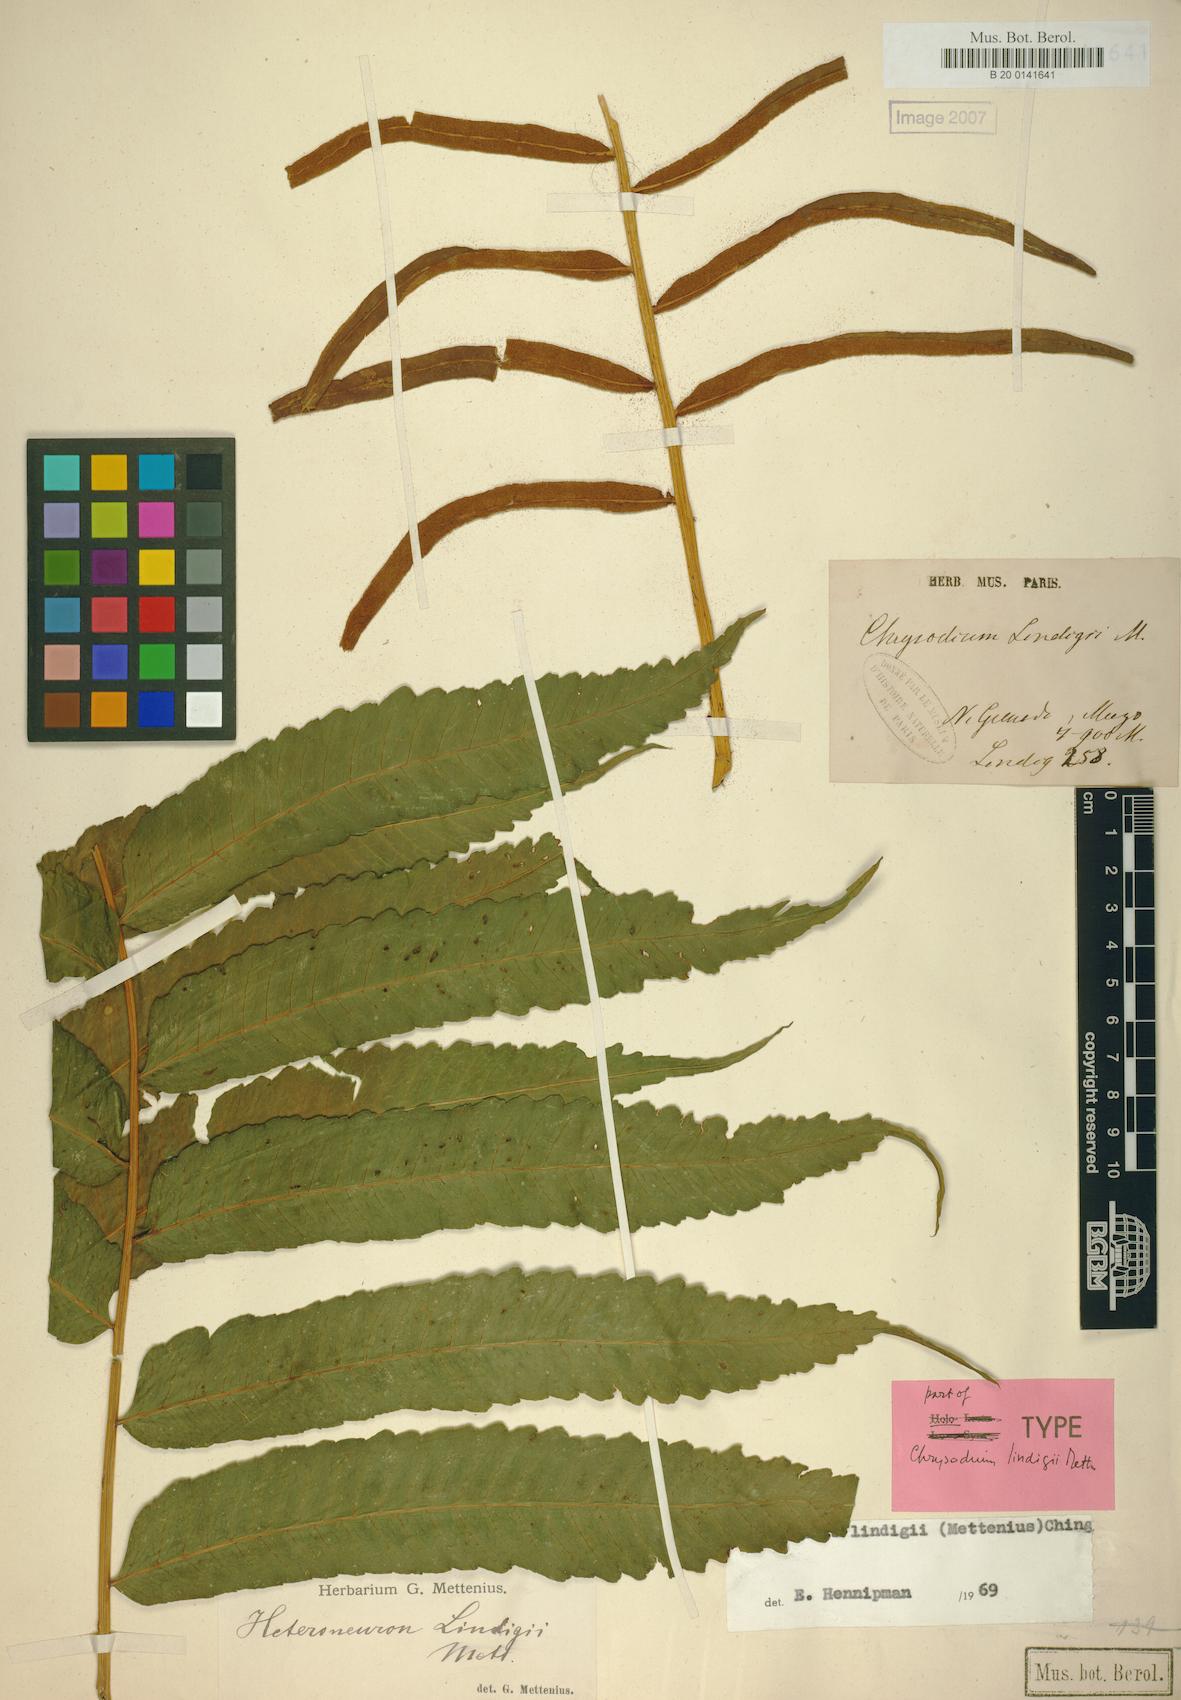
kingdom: Plantae
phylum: Tracheophyta
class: Polypodiopsida
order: Polypodiales
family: Dryopteridaceae
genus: Mickelia
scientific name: Mickelia lindigii
